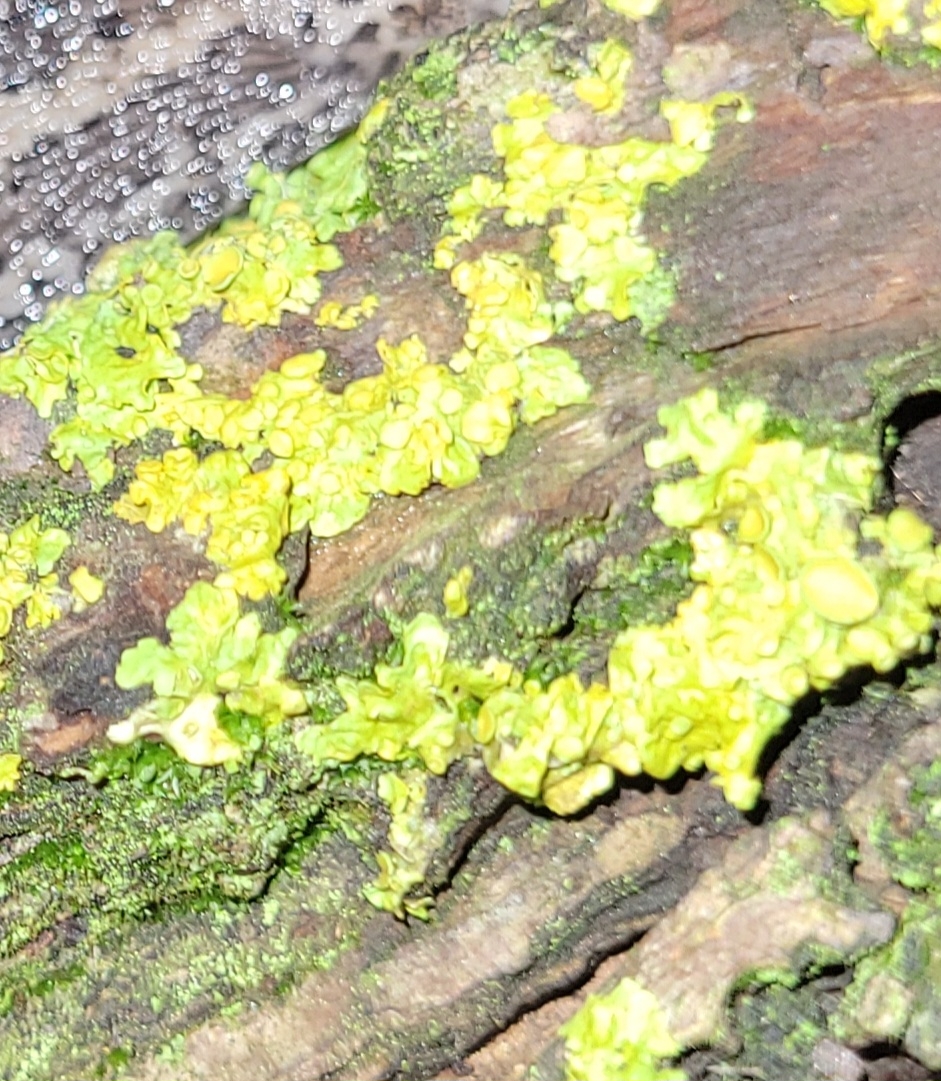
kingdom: Fungi
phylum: Ascomycota
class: Lecanoromycetes
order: Teloschistales
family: Teloschistaceae
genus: Xanthoria
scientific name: Xanthoria parietina
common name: Almindelig væggelav
